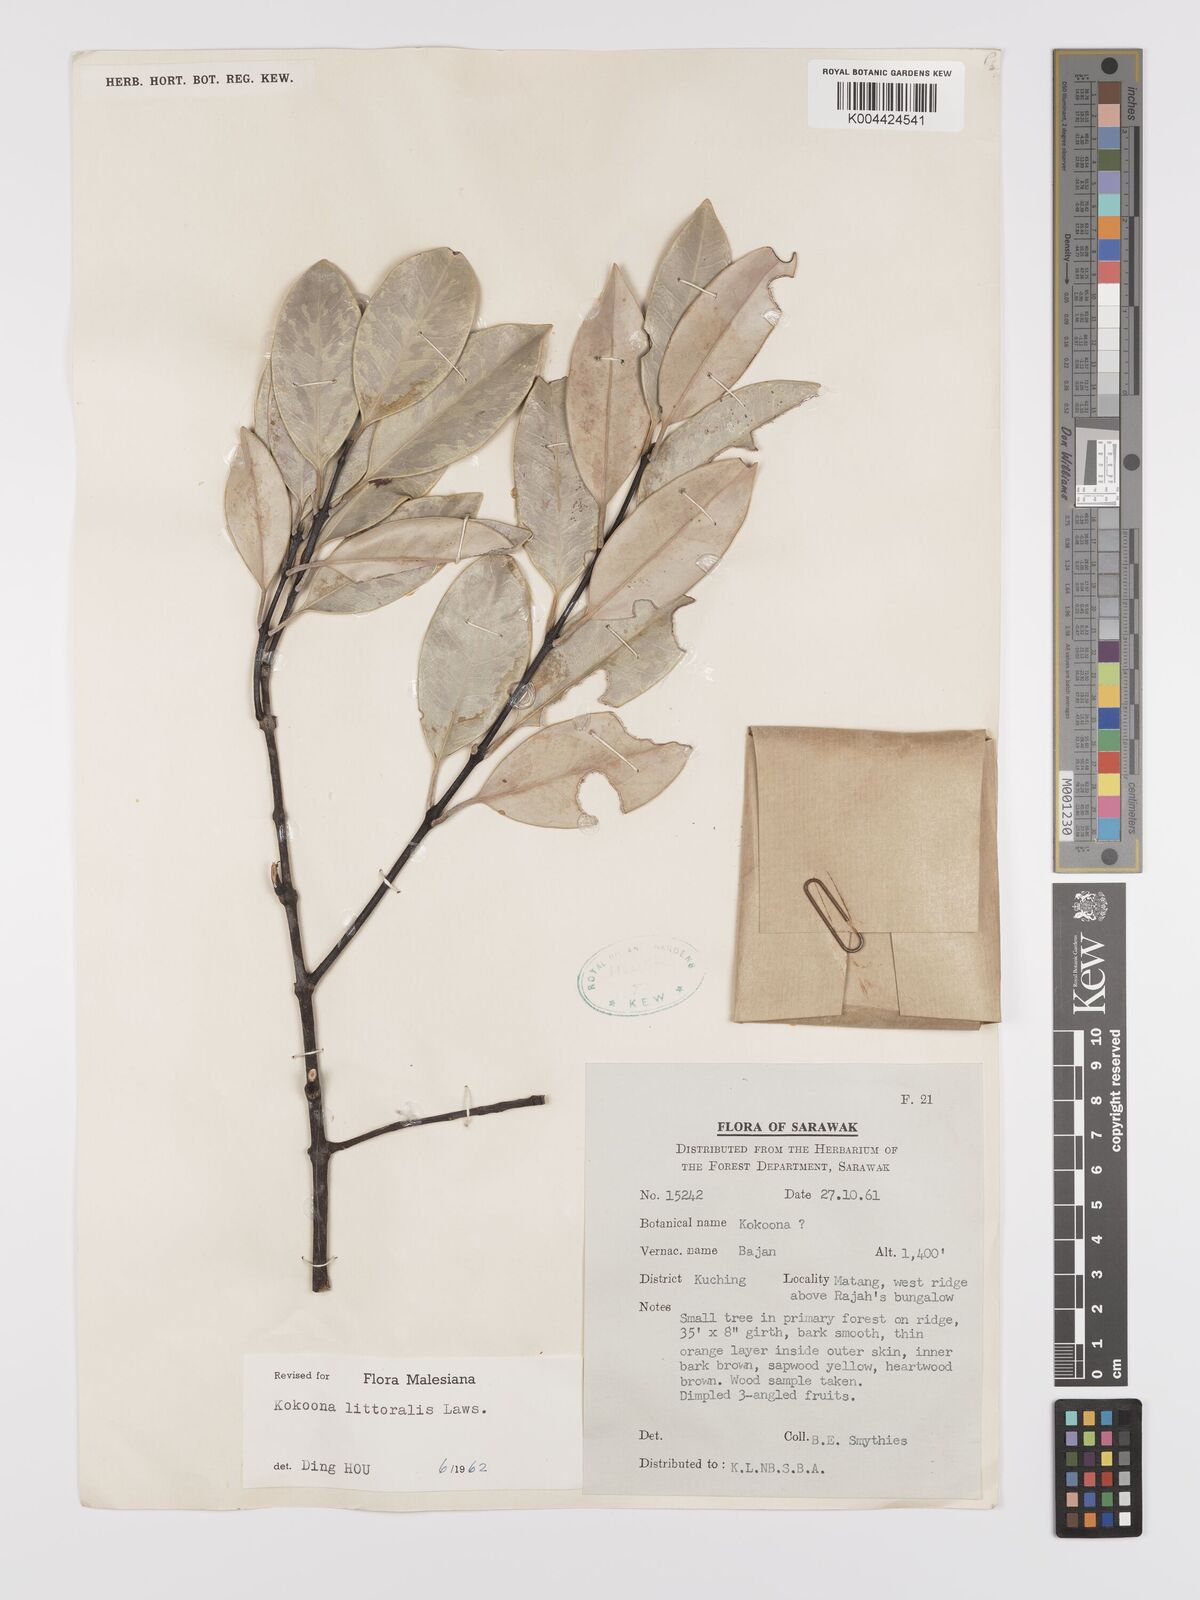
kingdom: Plantae
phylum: Tracheophyta
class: Magnoliopsida
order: Celastrales
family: Celastraceae
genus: Kokoona
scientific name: Kokoona littoralis
